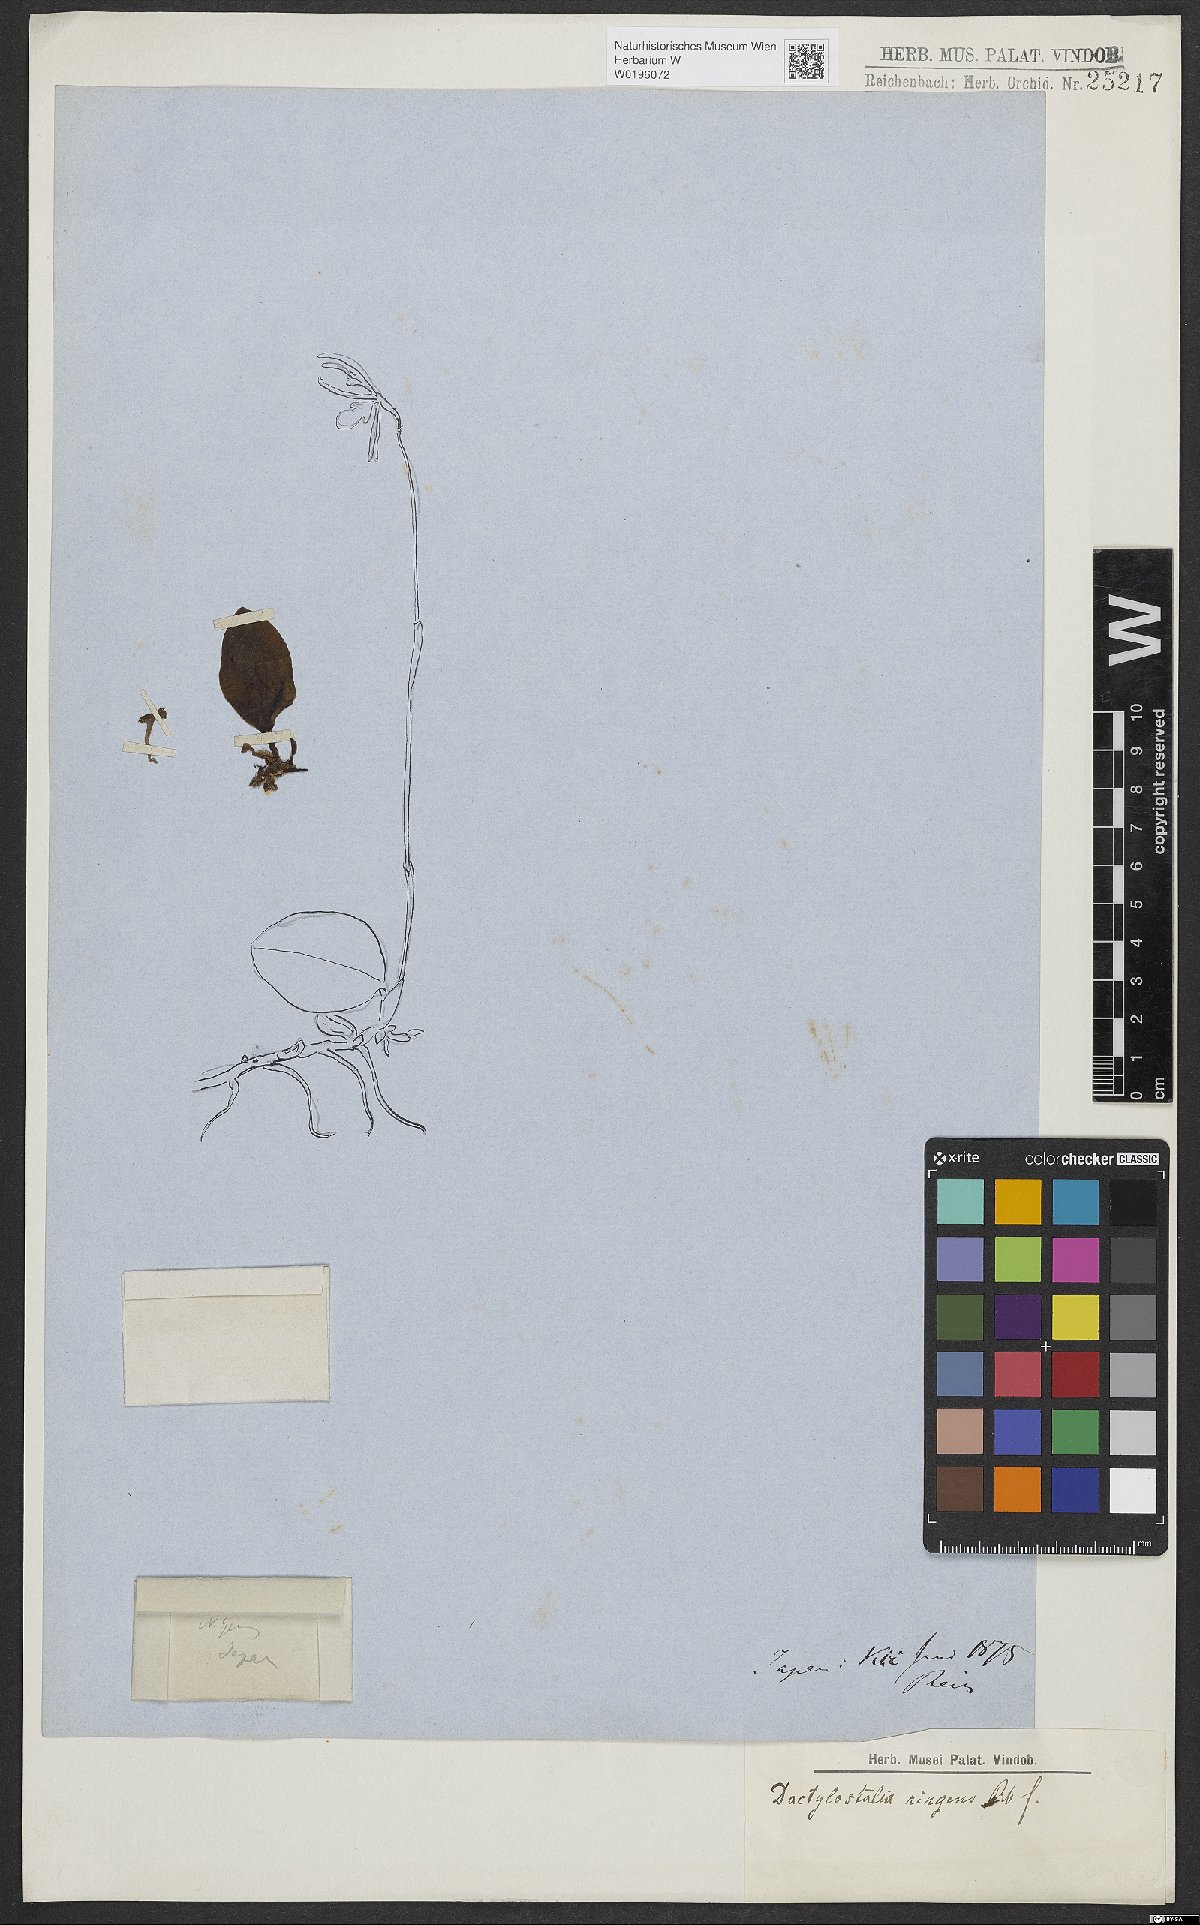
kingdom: Plantae
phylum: Tracheophyta
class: Liliopsida
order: Asparagales
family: Orchidaceae
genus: Dactylostalix
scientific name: Dactylostalix ringens
